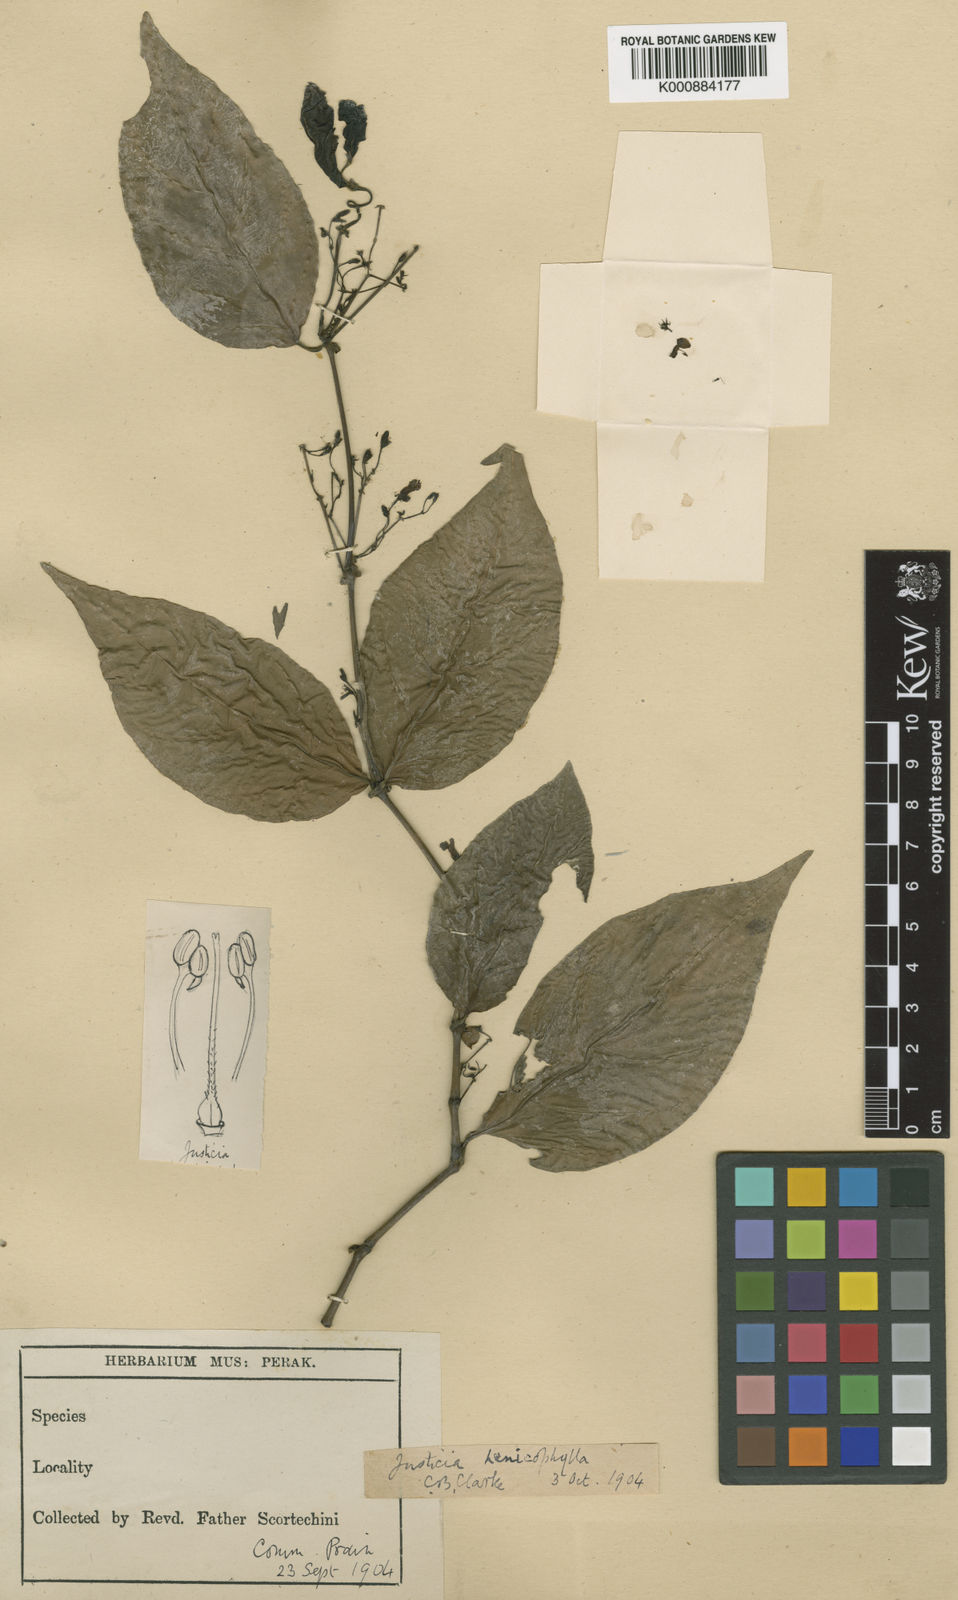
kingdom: Plantae
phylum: Tracheophyta
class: Magnoliopsida
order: Lamiales
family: Acanthaceae
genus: Justicia
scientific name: Justicia alternifolia
